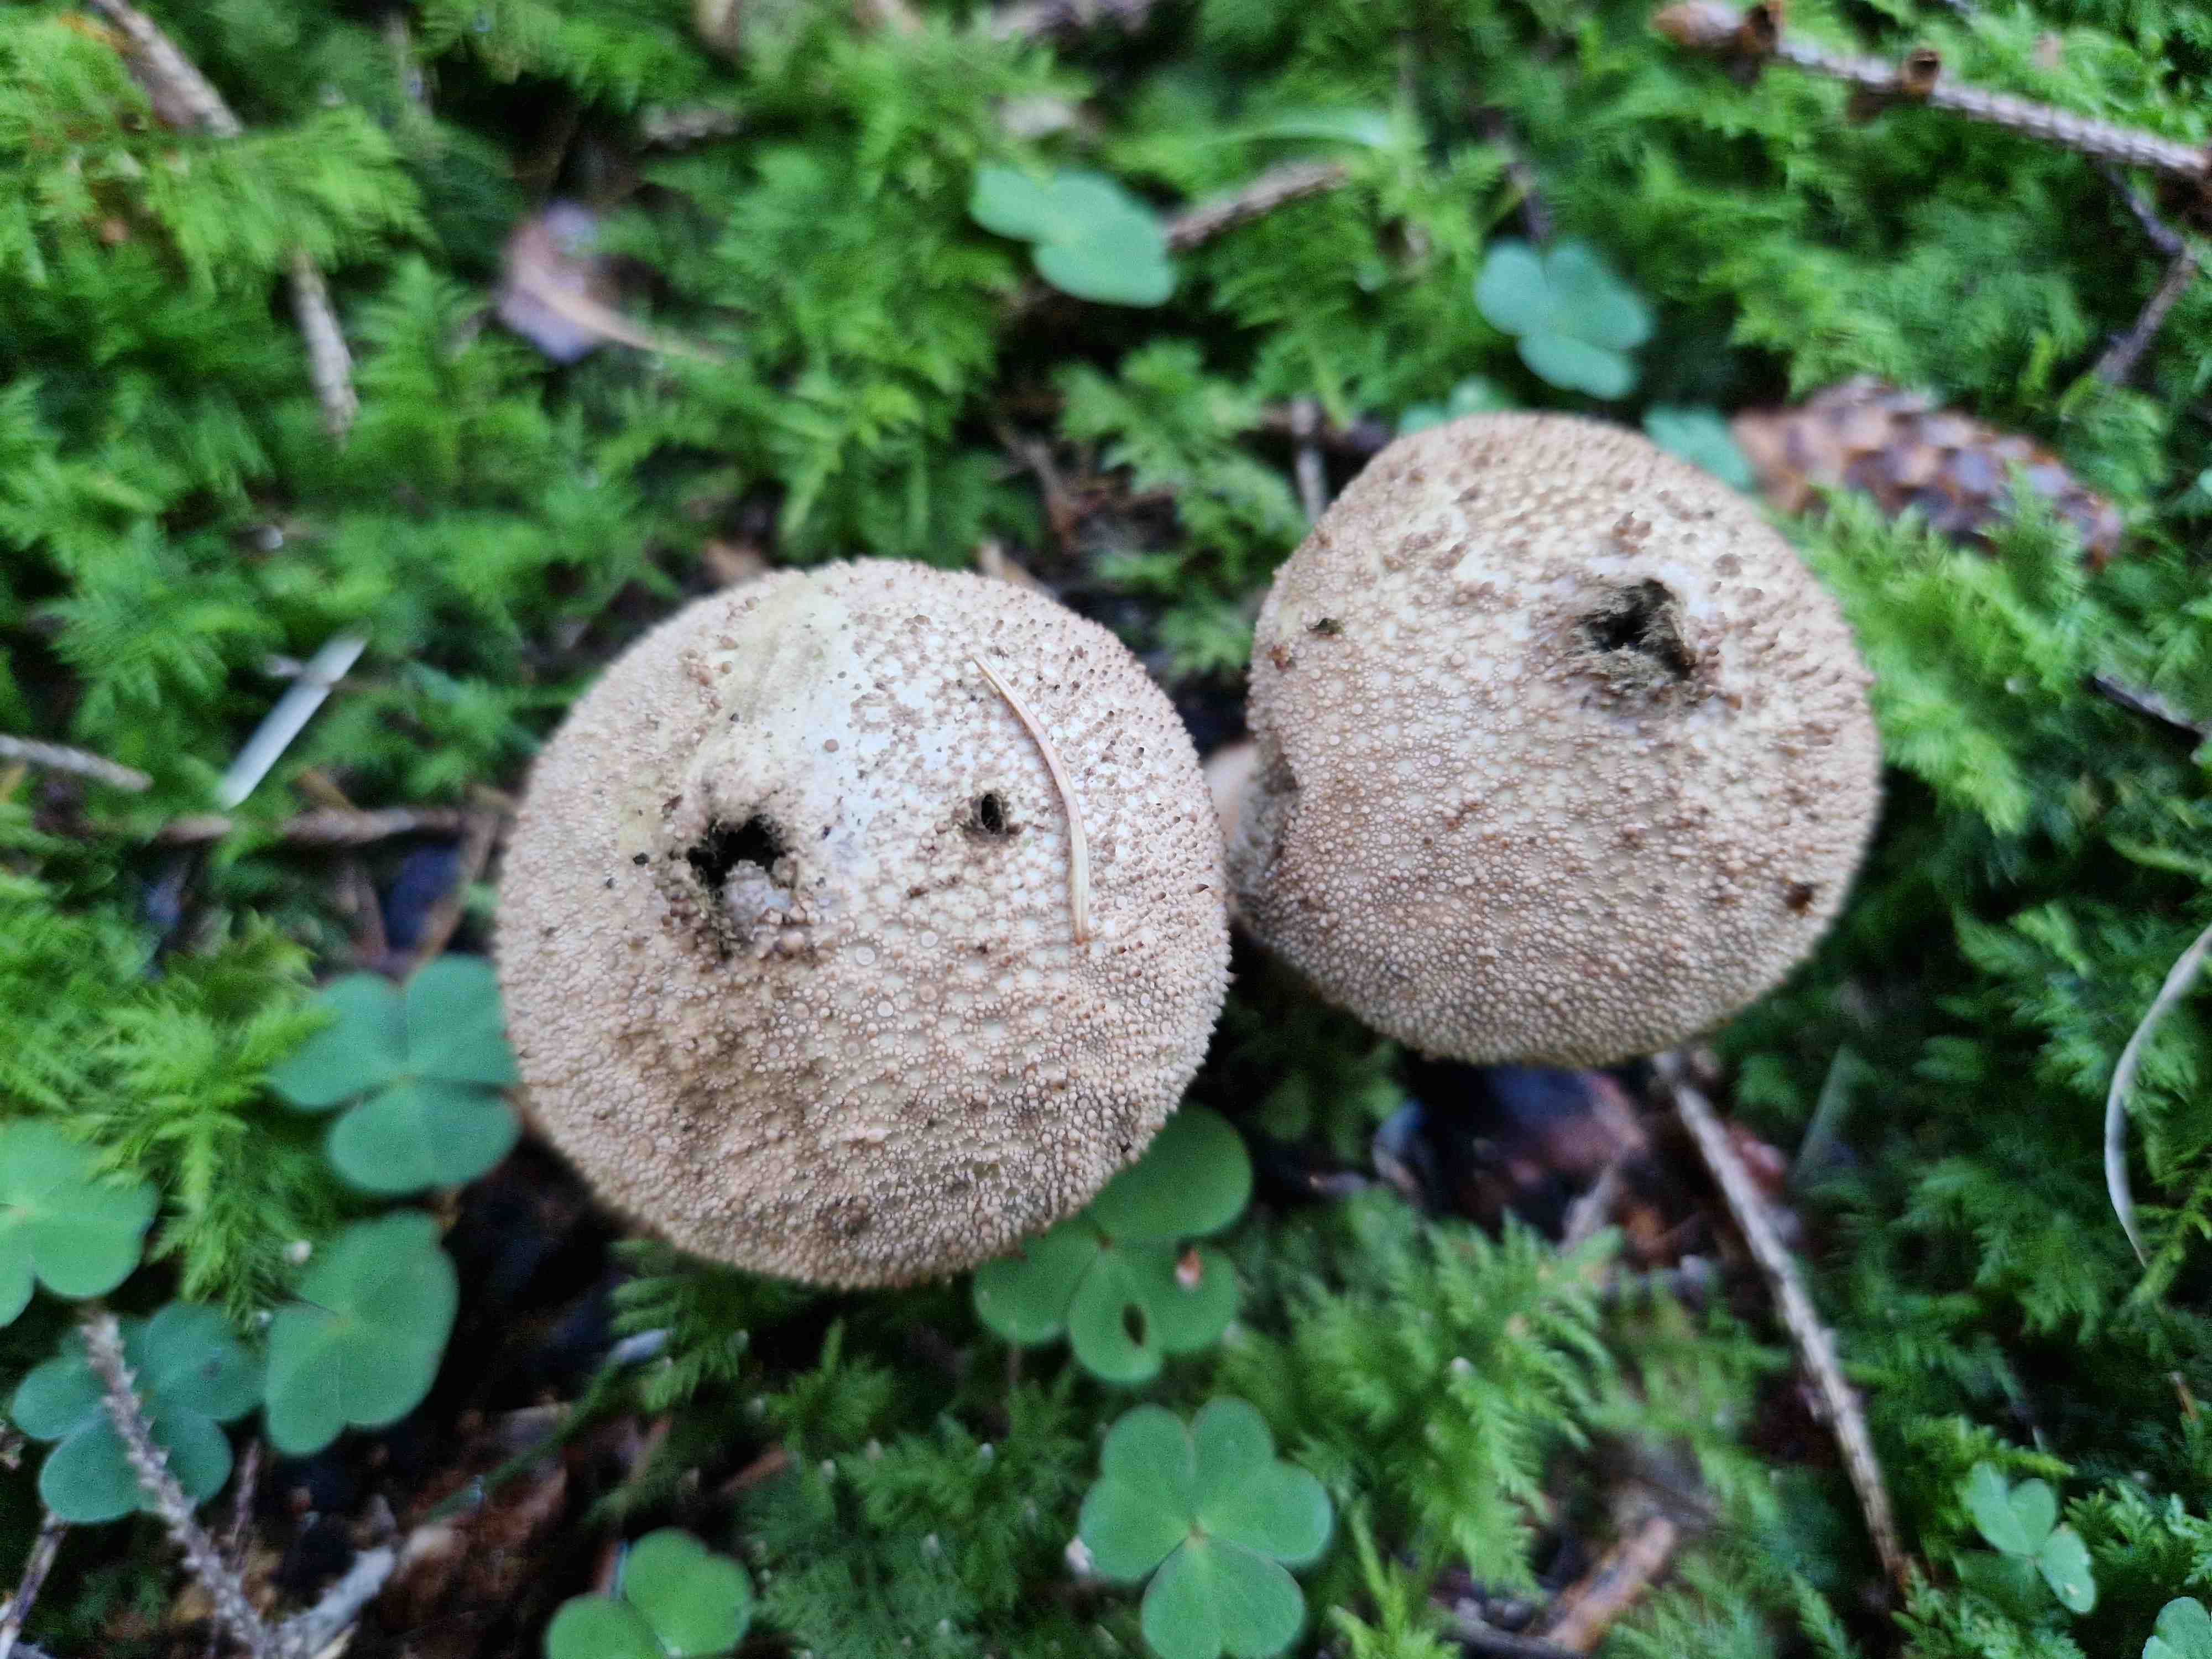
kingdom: Fungi
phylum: Basidiomycota
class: Agaricomycetes
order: Agaricales
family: Lycoperdaceae
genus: Lycoperdon
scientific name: Lycoperdon perlatum
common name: krystal-støvbold
